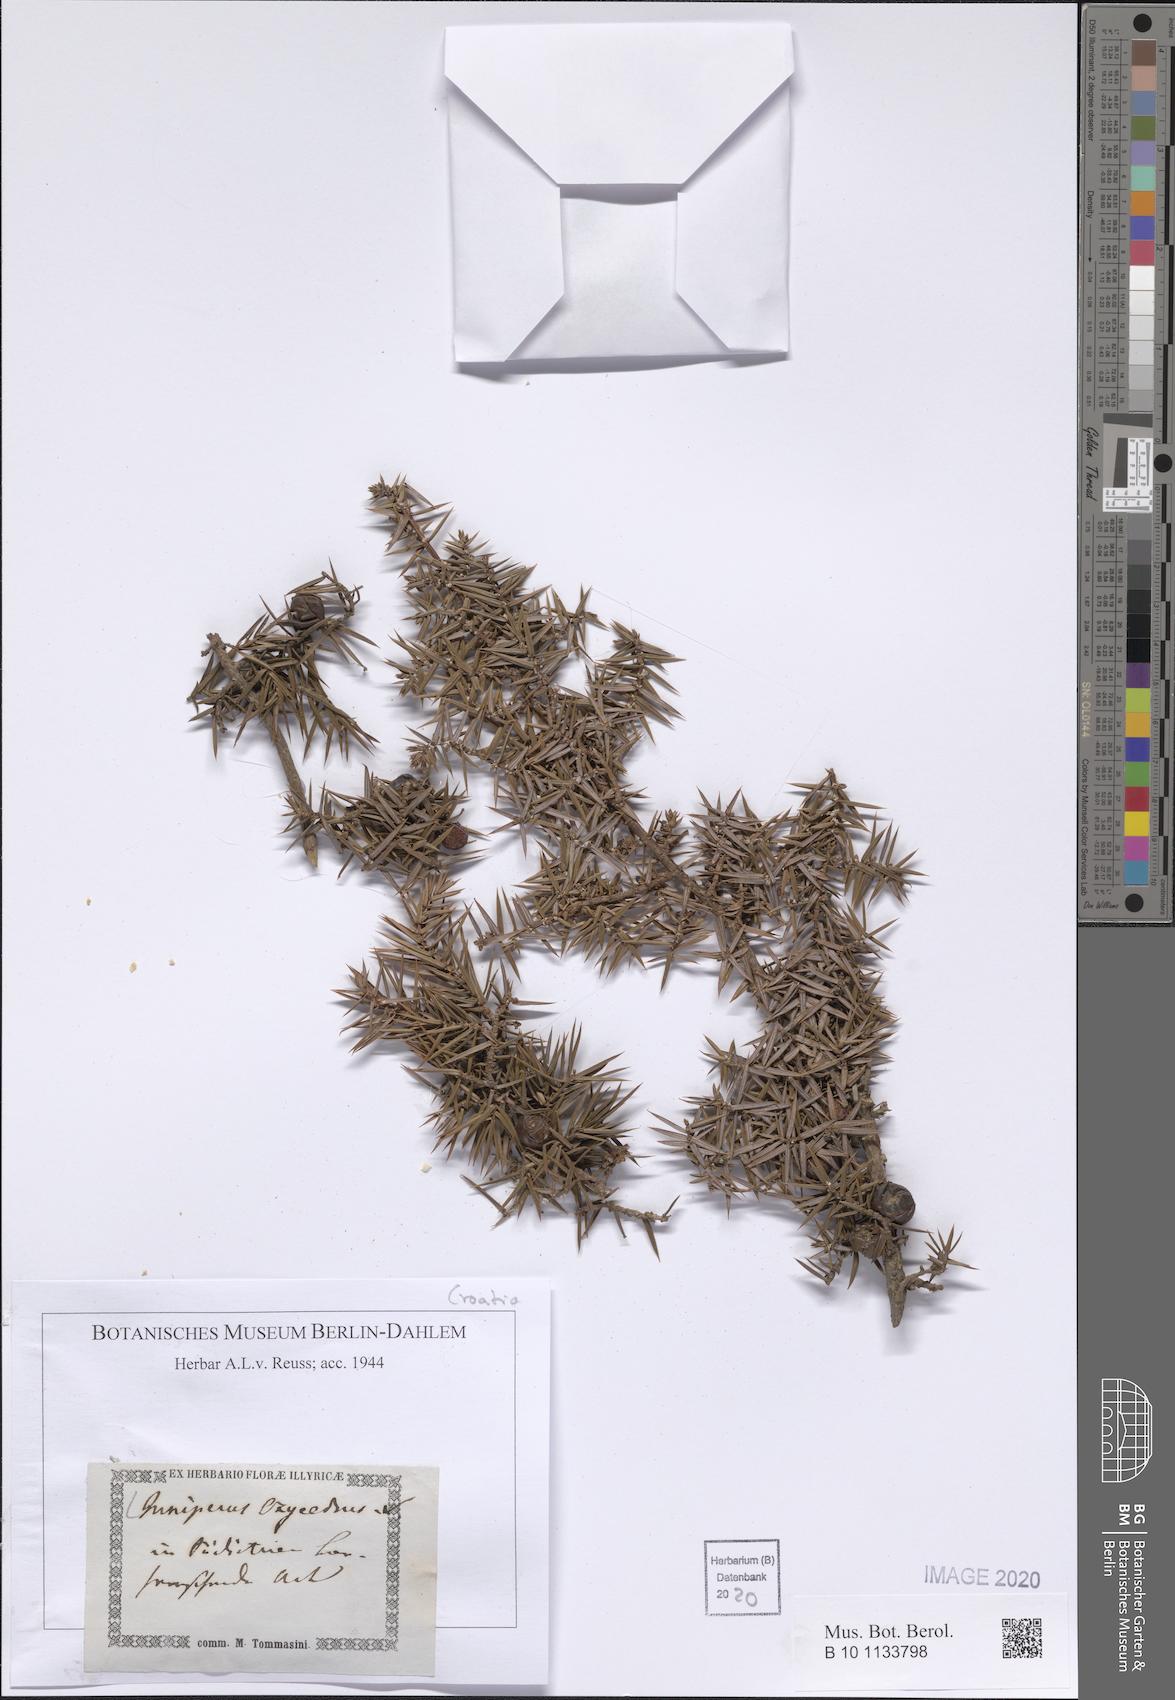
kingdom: Plantae
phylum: Tracheophyta
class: Pinopsida
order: Pinales
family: Cupressaceae
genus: Juniperus
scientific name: Juniperus oxycedrus
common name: Prickly juniper
